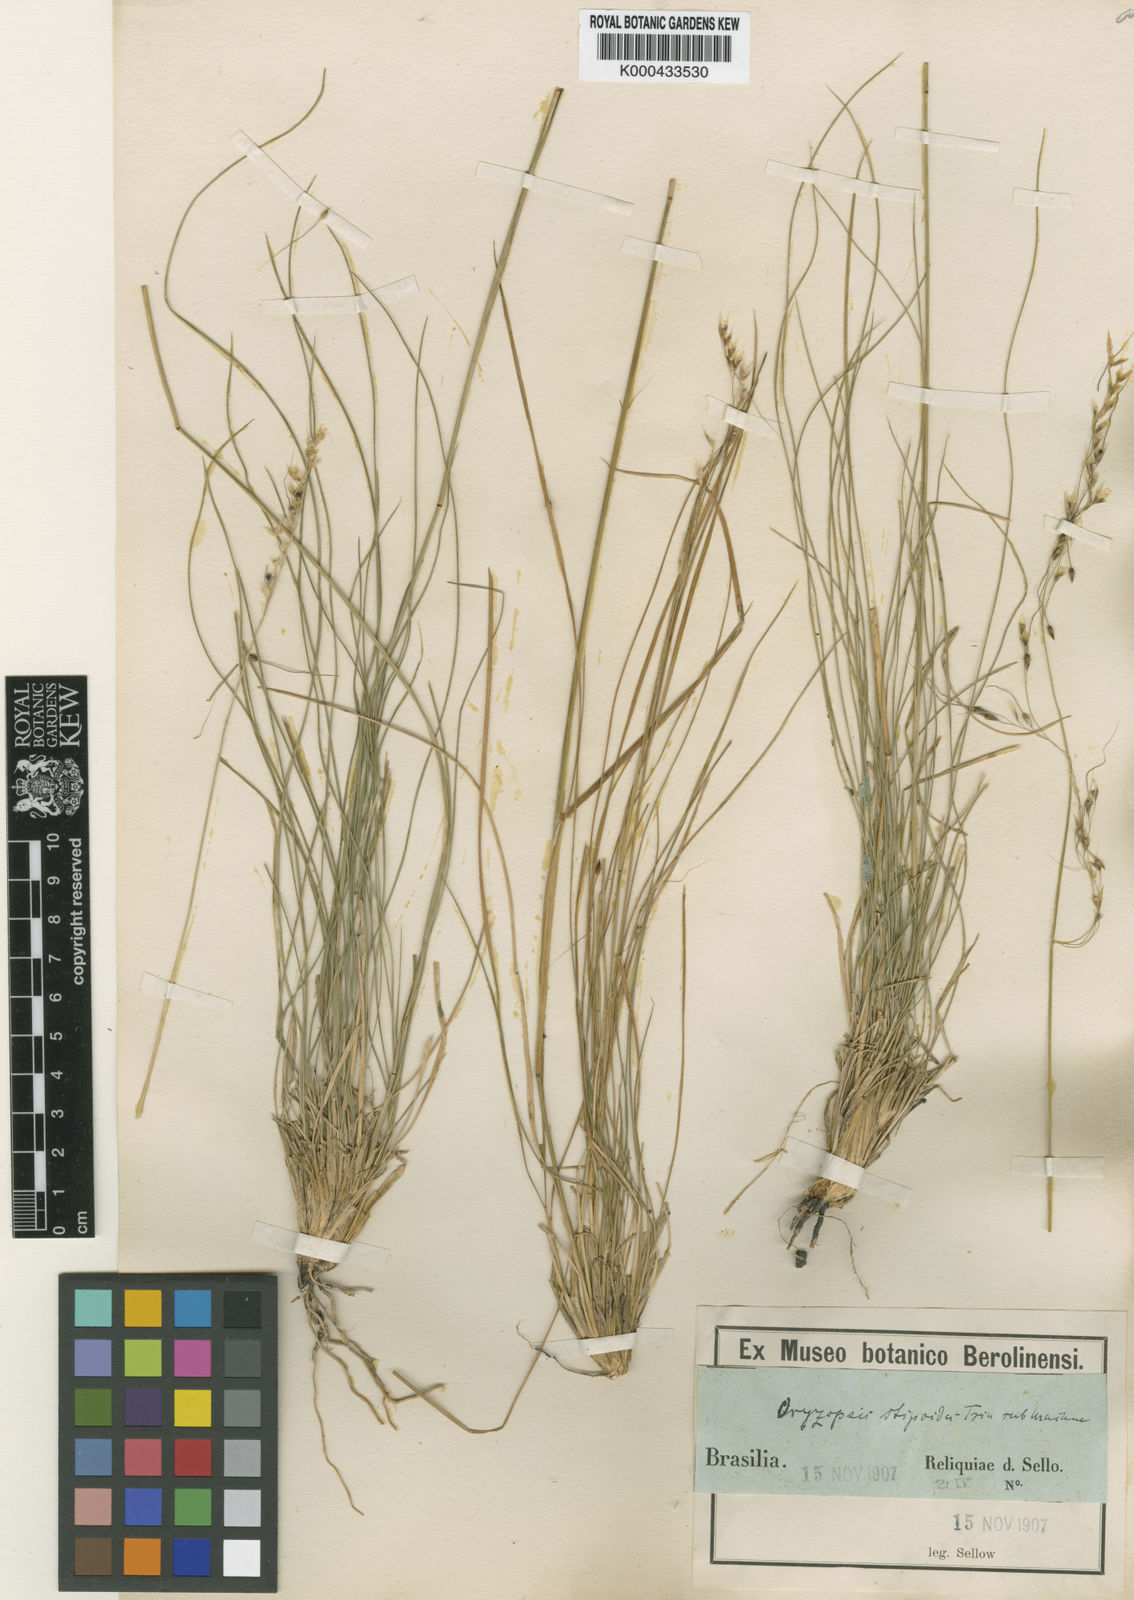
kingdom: Plantae
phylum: Tracheophyta
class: Liliopsida
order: Poales
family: Poaceae
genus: Piptochaetium
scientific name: Piptochaetium
